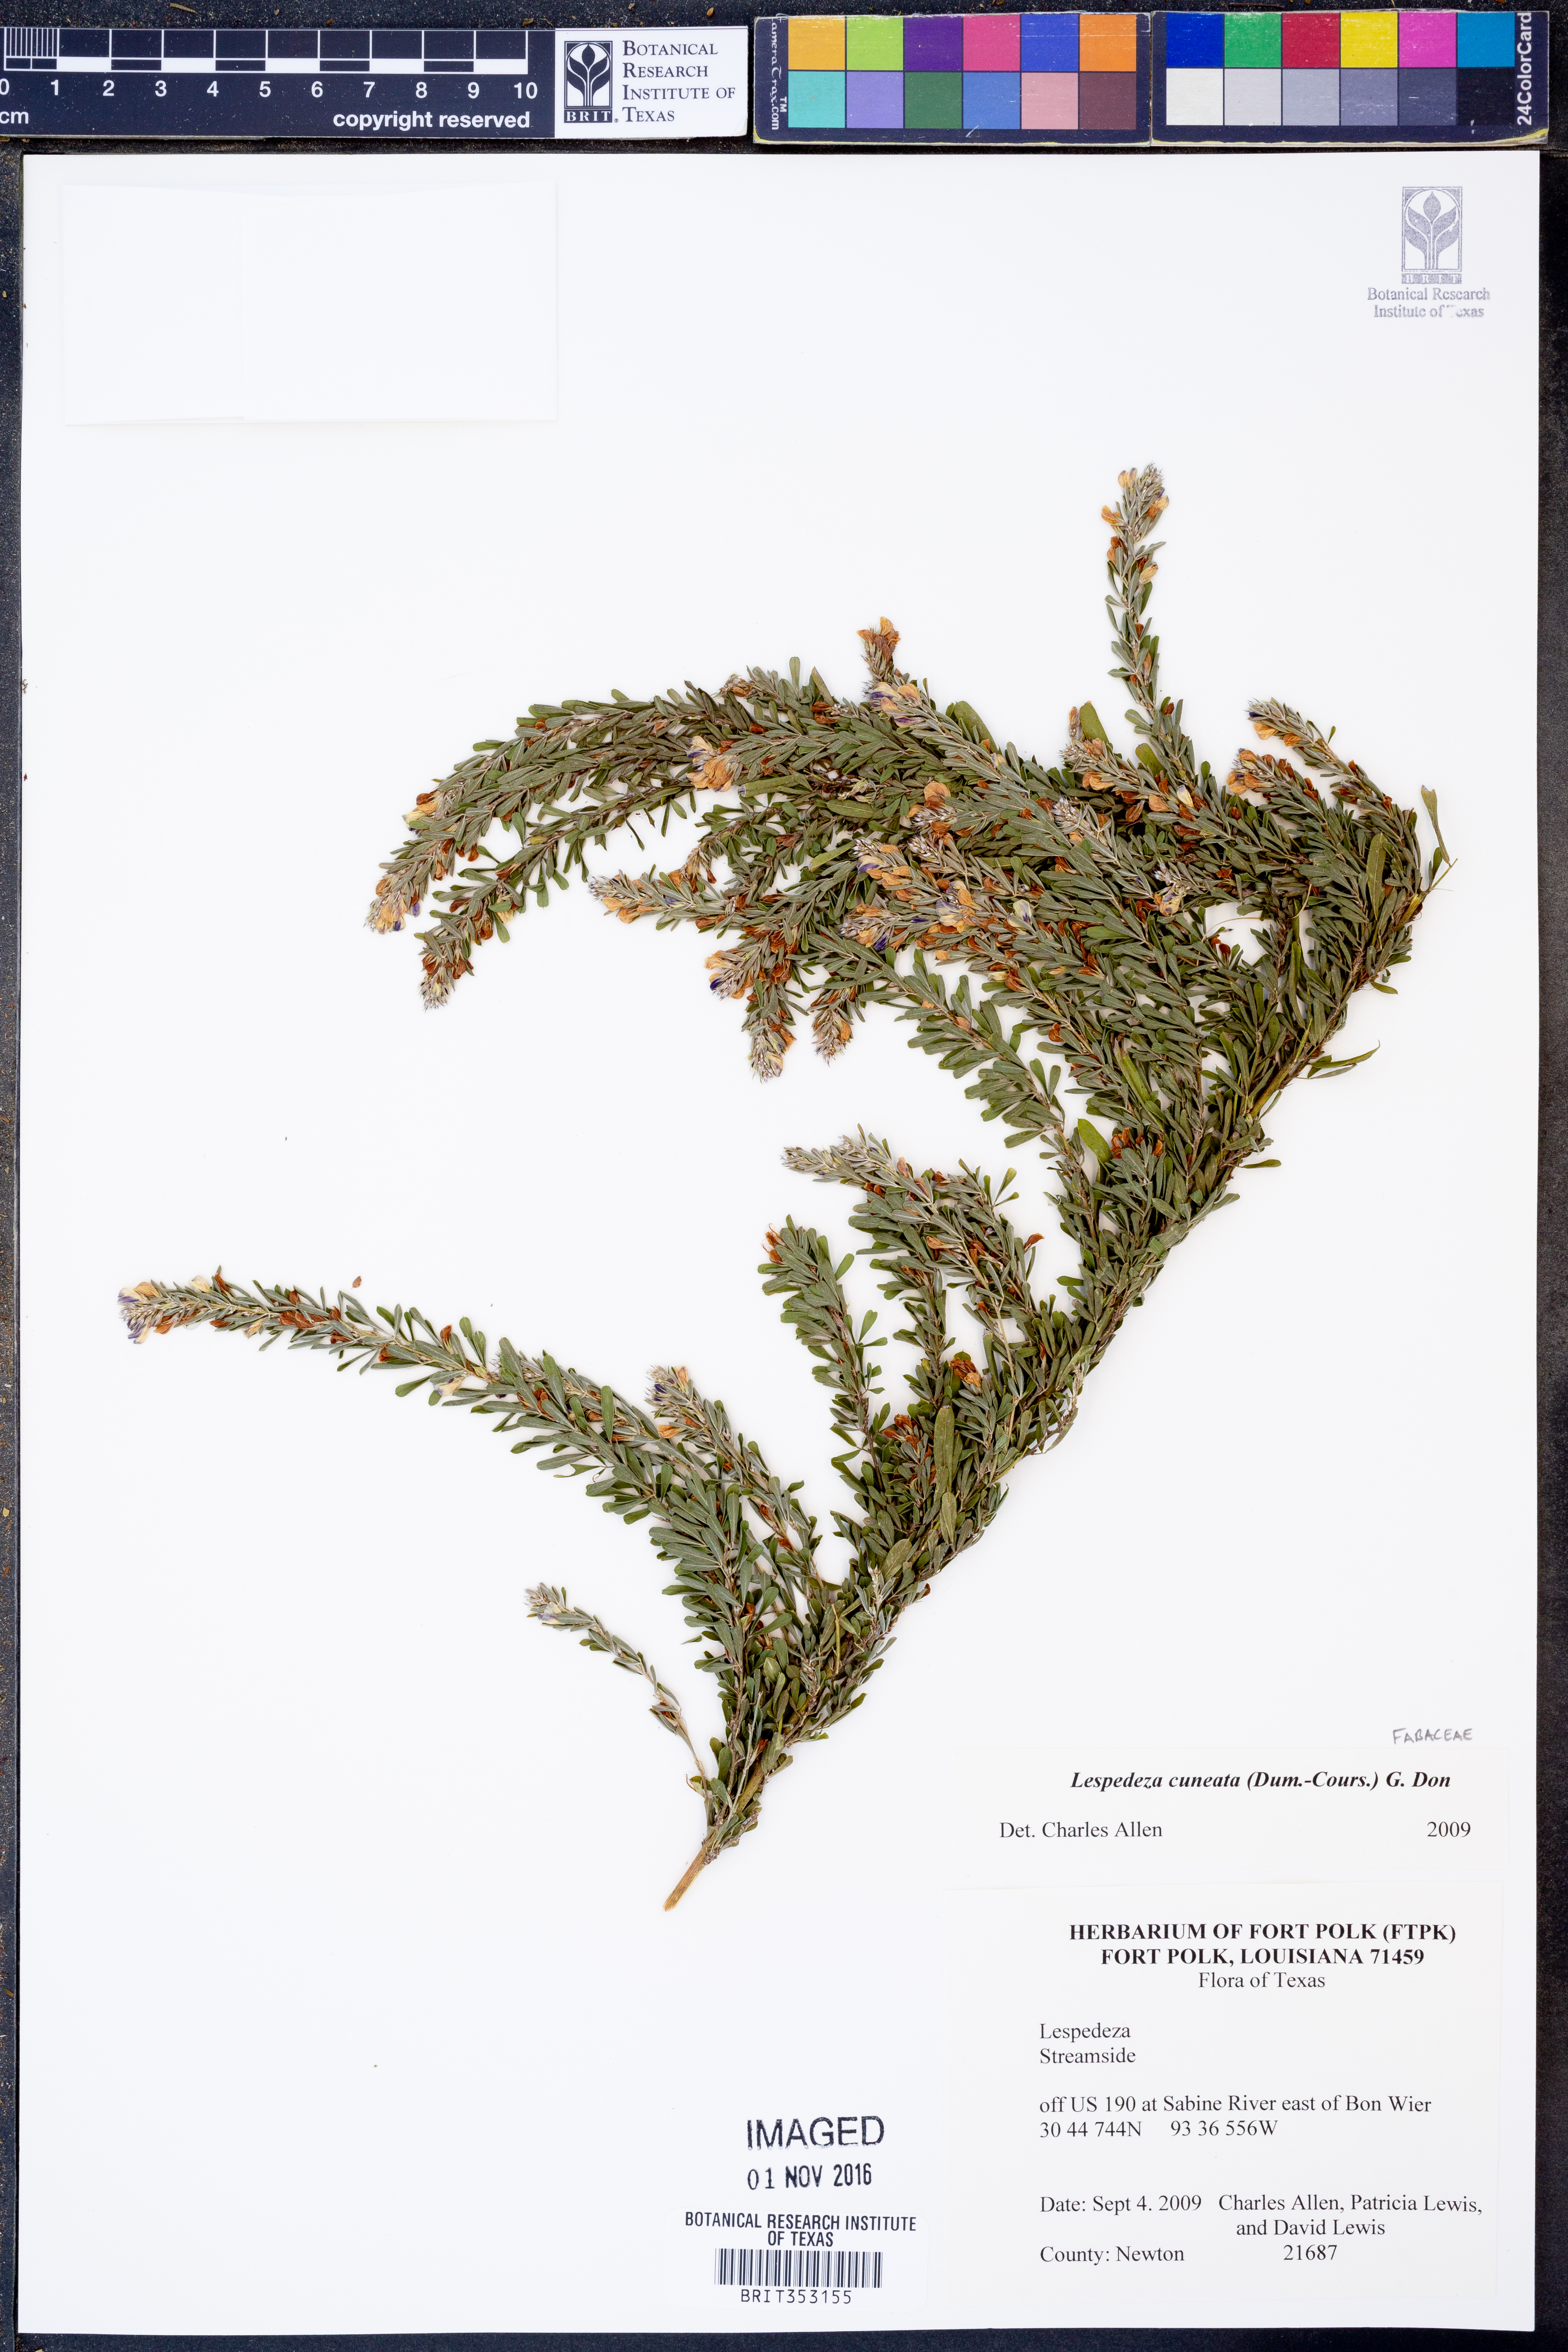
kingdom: Plantae
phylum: Tracheophyta
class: Magnoliopsida
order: Fabales
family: Fabaceae
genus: Lespedeza
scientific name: Lespedeza cuneata
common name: Chinese bush-clover
